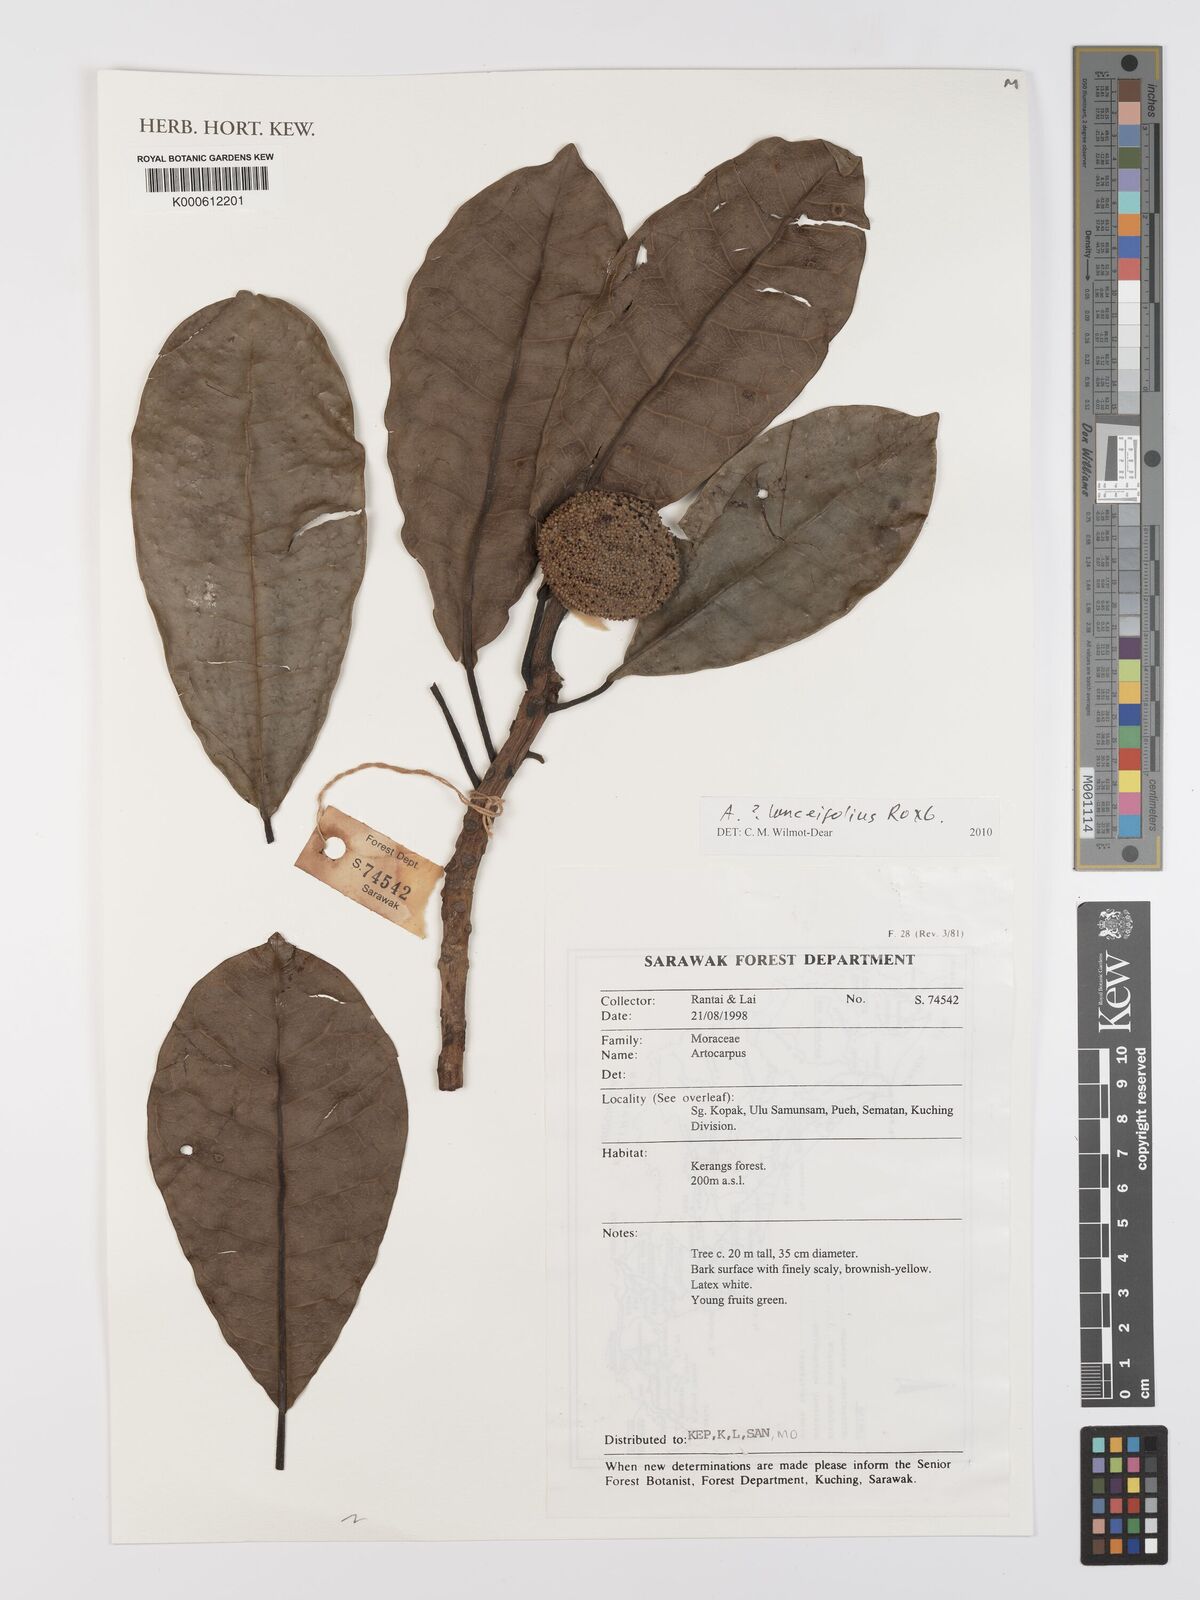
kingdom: Plantae
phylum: Tracheophyta
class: Magnoliopsida
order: Rosales
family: Moraceae
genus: Artocarpus
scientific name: Artocarpus lanceifolius
